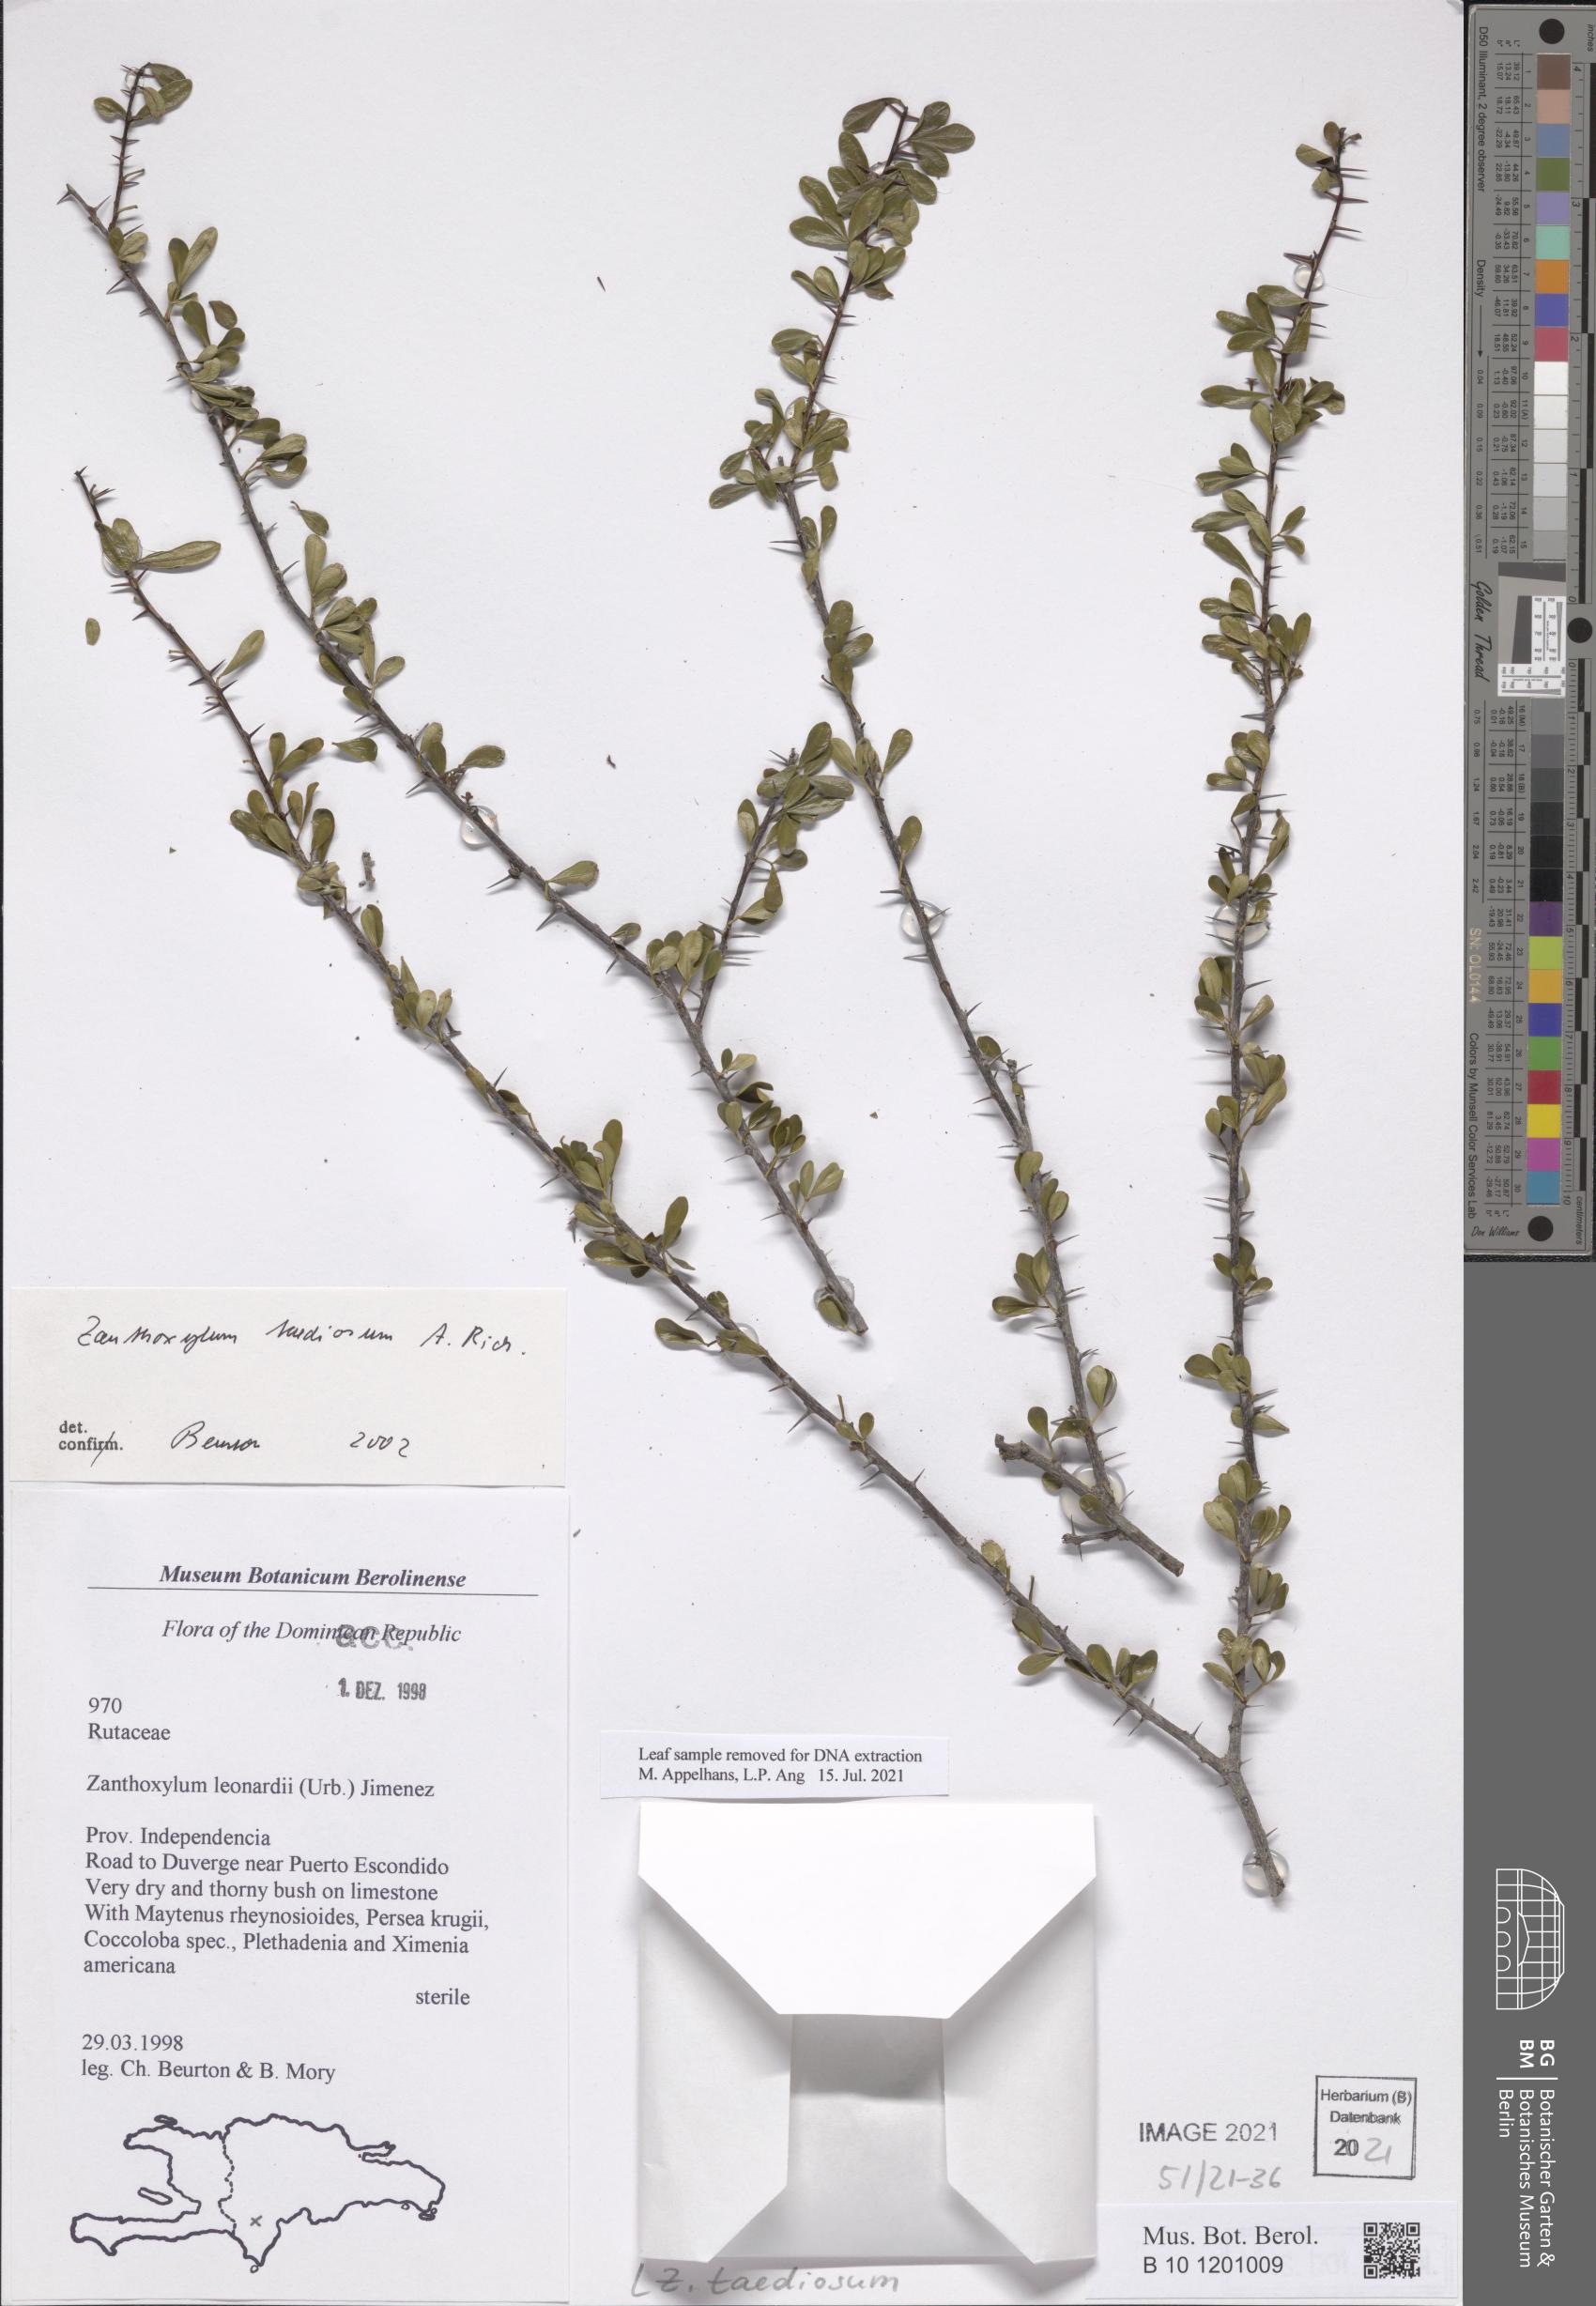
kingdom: Plantae
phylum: Tracheophyta
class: Magnoliopsida
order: Sapindales
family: Rutaceae
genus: Zanthoxylum
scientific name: Zanthoxylum taediosum
